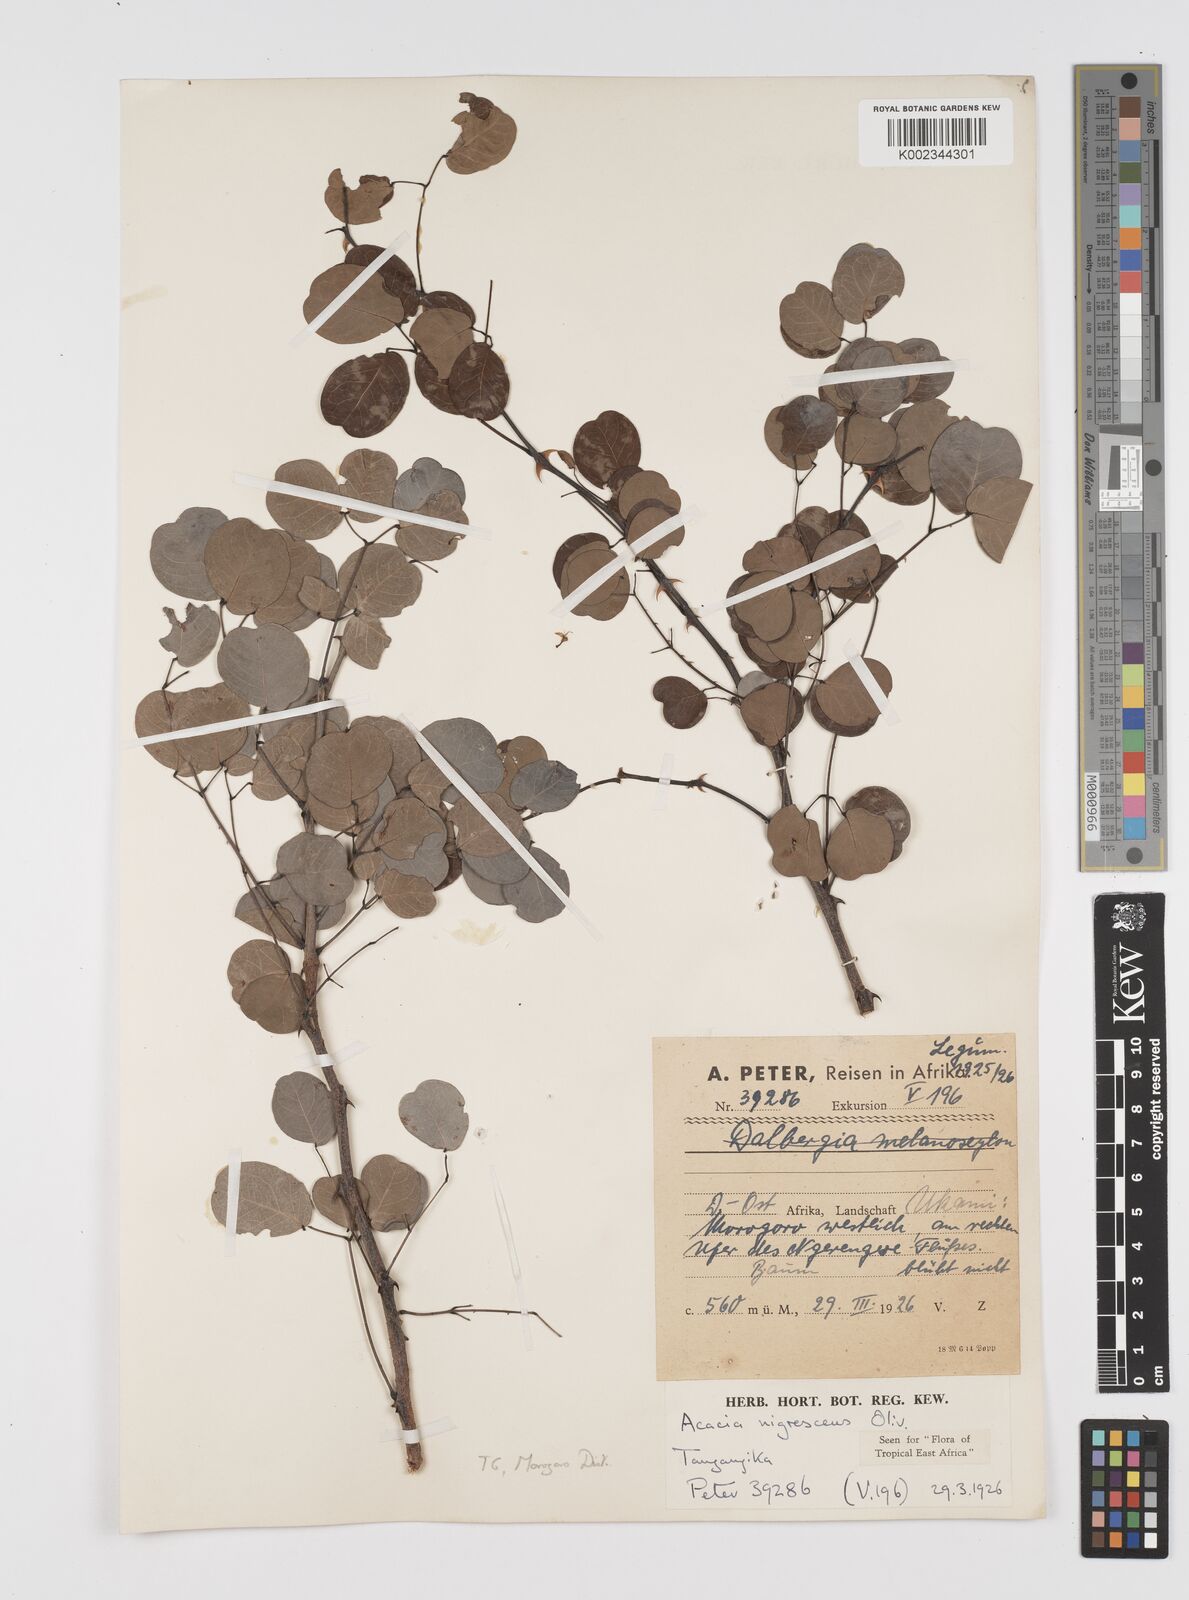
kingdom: Plantae
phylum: Tracheophyta
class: Magnoliopsida
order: Fabales
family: Fabaceae
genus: Senegalia
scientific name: Senegalia nigrescens
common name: Knobthorn
